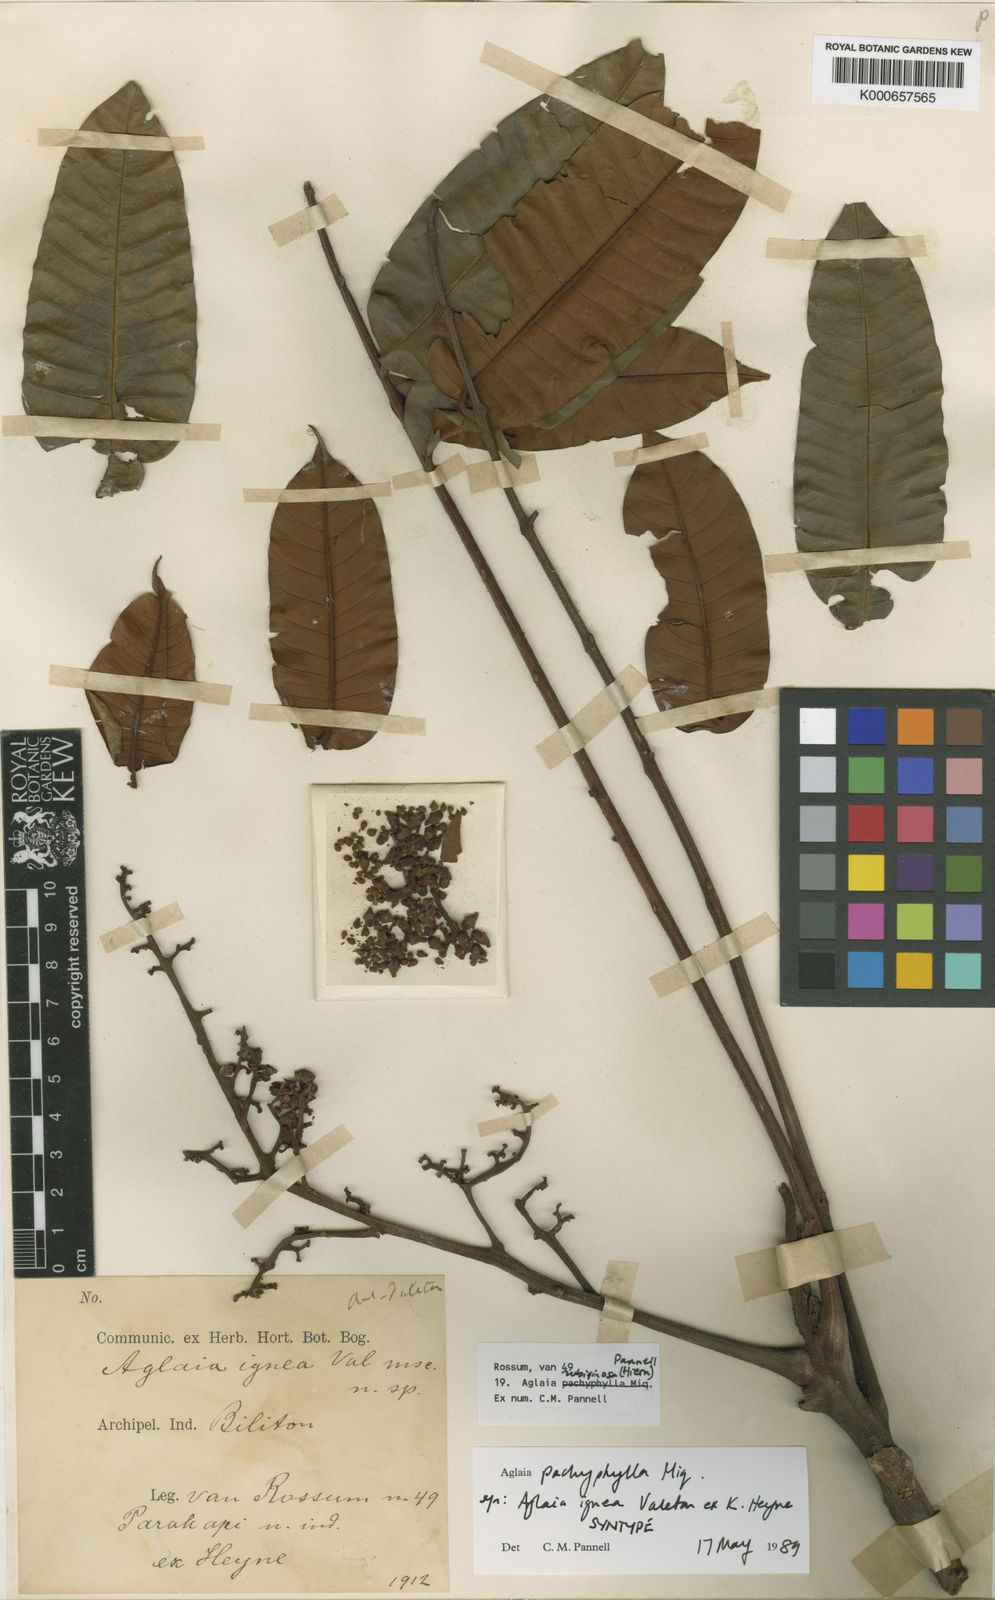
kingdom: Plantae
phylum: Tracheophyta
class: Magnoliopsida
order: Sapindales
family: Meliaceae
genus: Aglaia
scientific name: Aglaia rubiginosa
